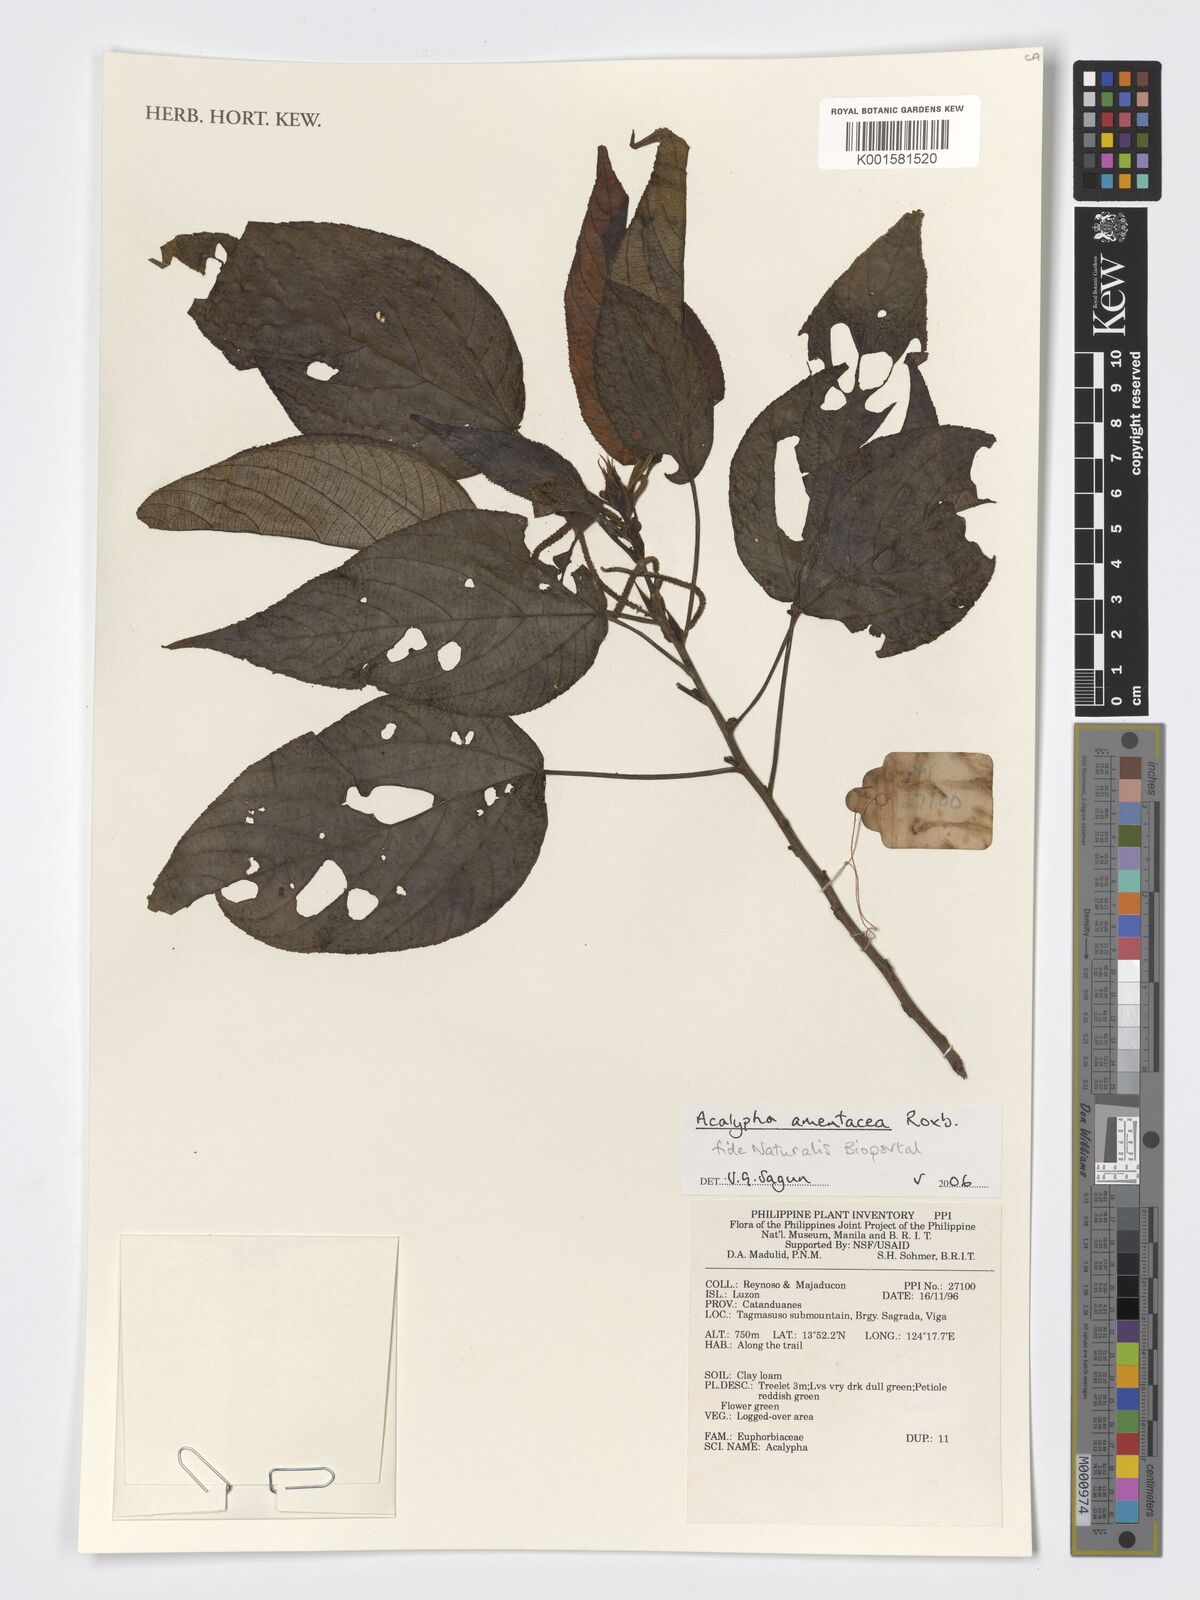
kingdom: Plantae
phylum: Tracheophyta
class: Magnoliopsida
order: Malpighiales
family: Euphorbiaceae
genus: Acalypha
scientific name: Acalypha amentacea
